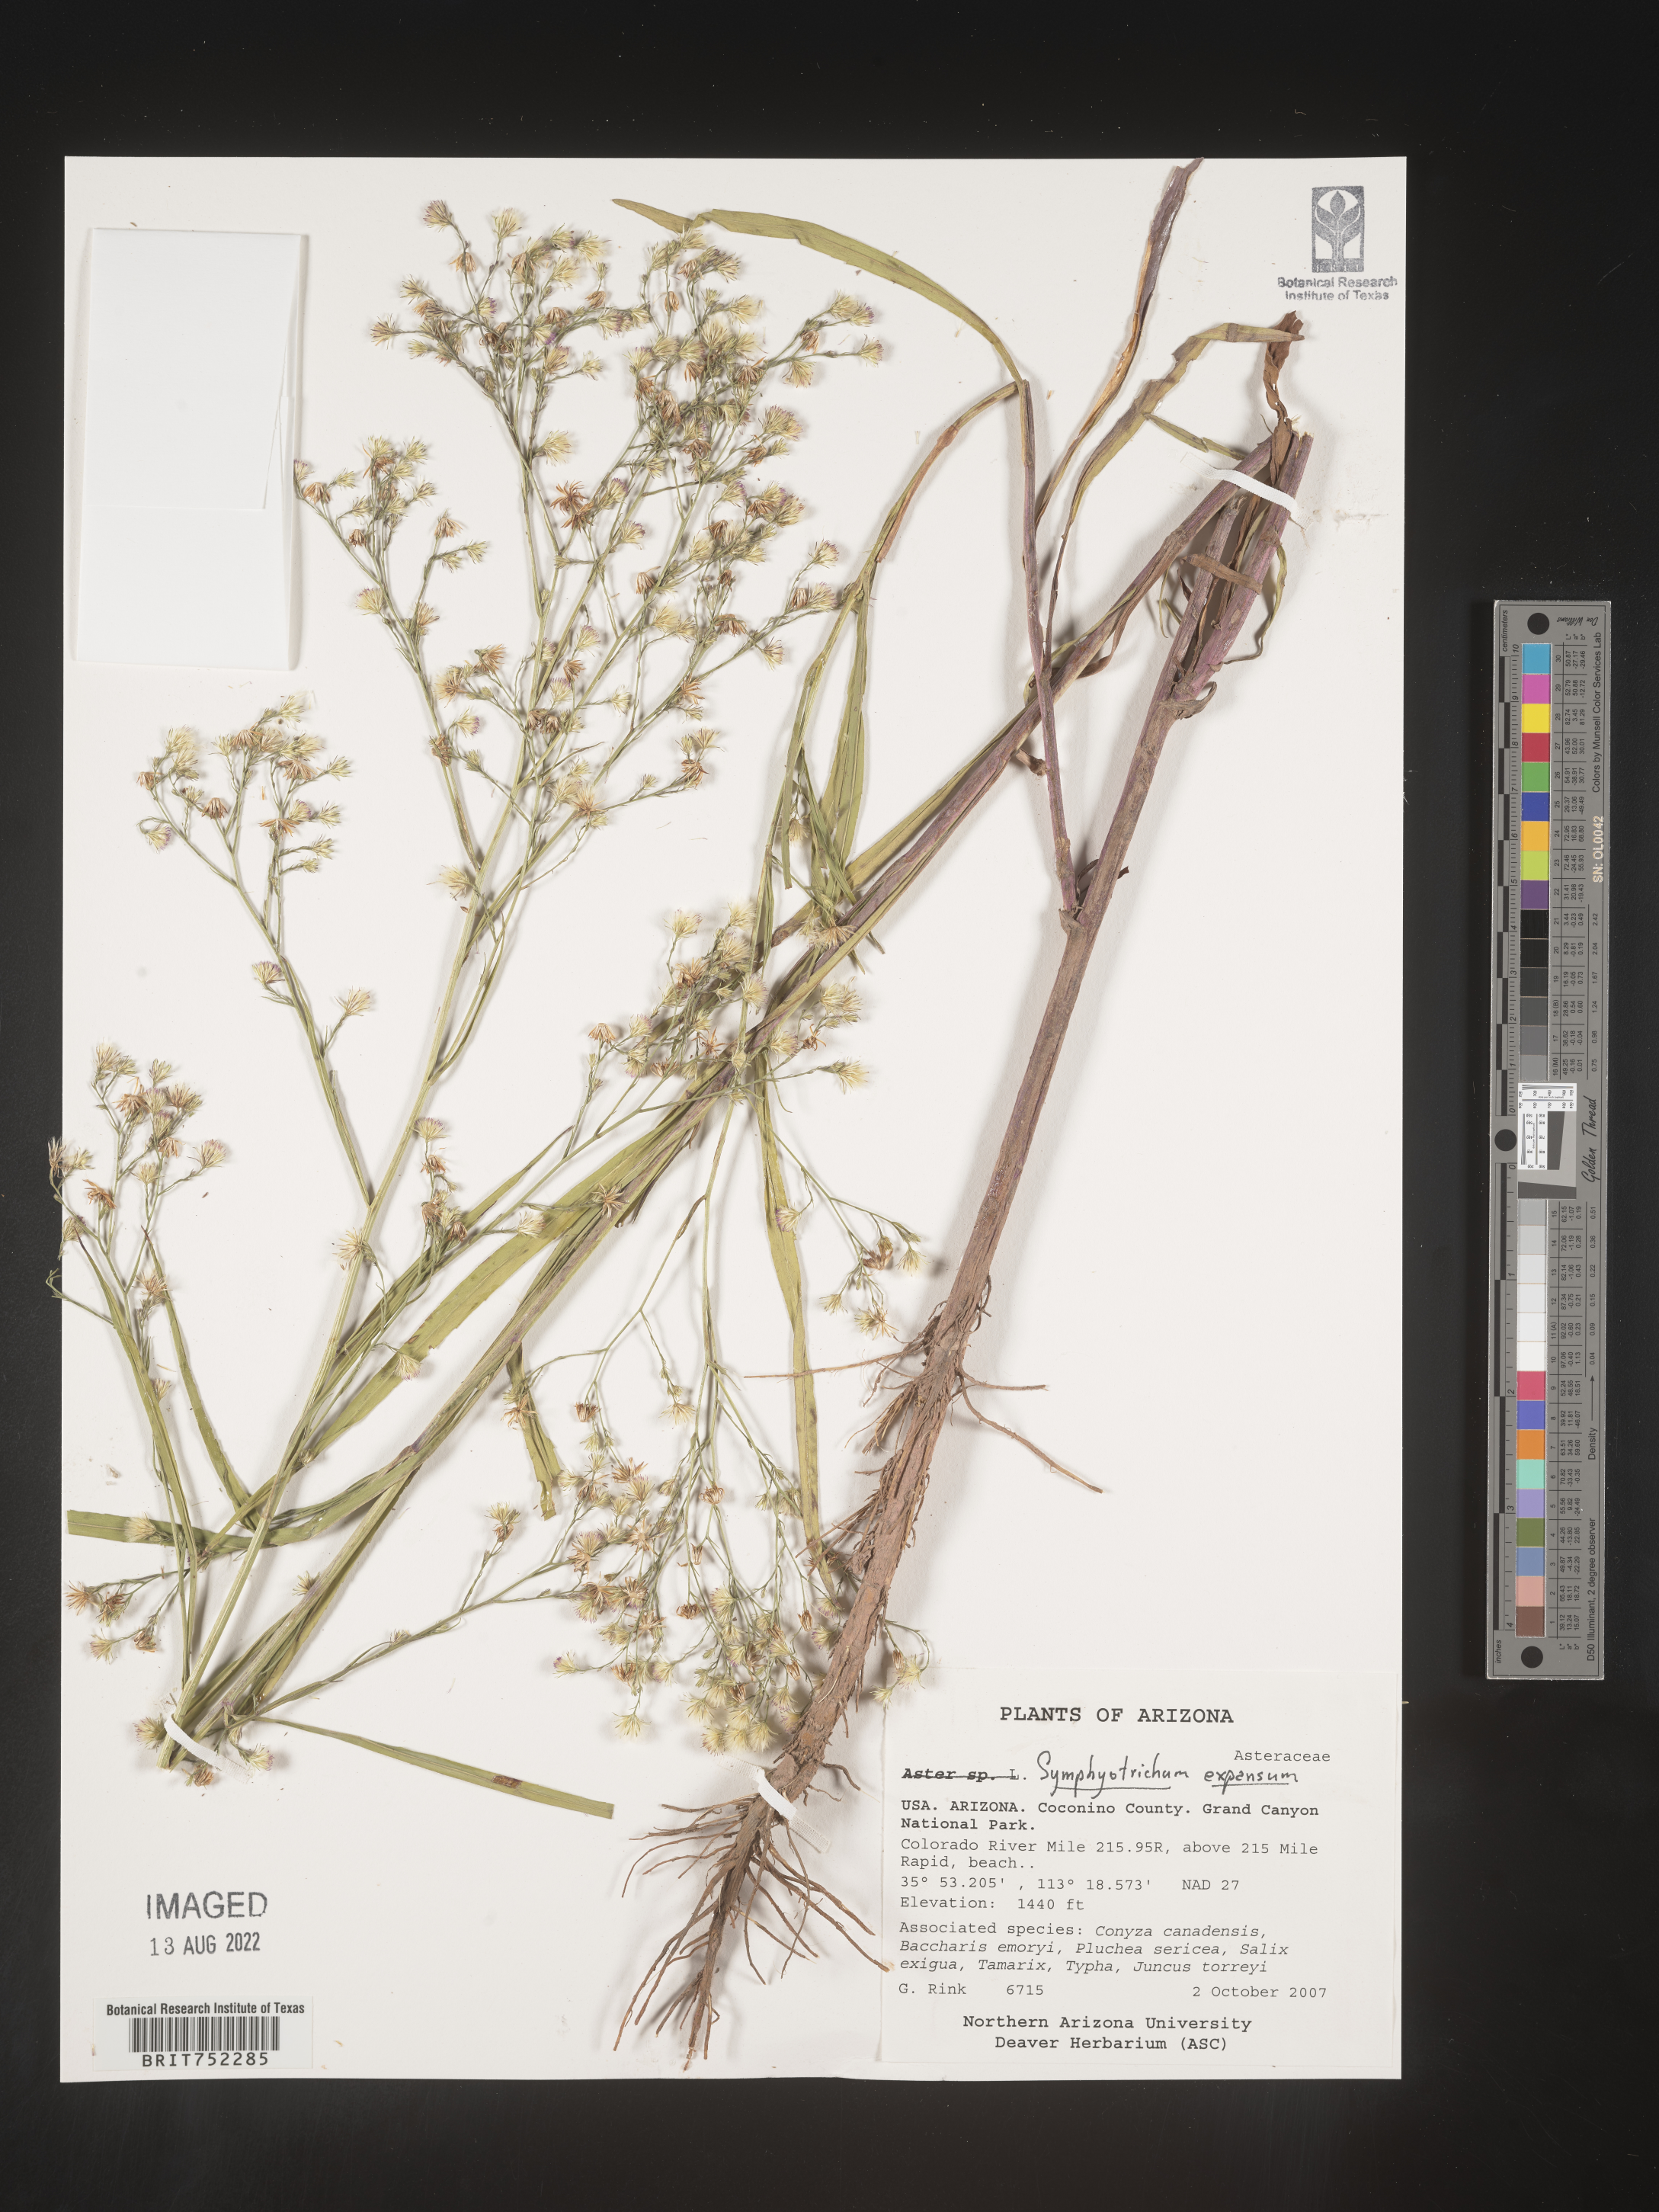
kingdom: Plantae
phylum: Tracheophyta
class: Magnoliopsida
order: Asterales
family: Asteraceae
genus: Symphyotrichum
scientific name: Symphyotrichum expansum
